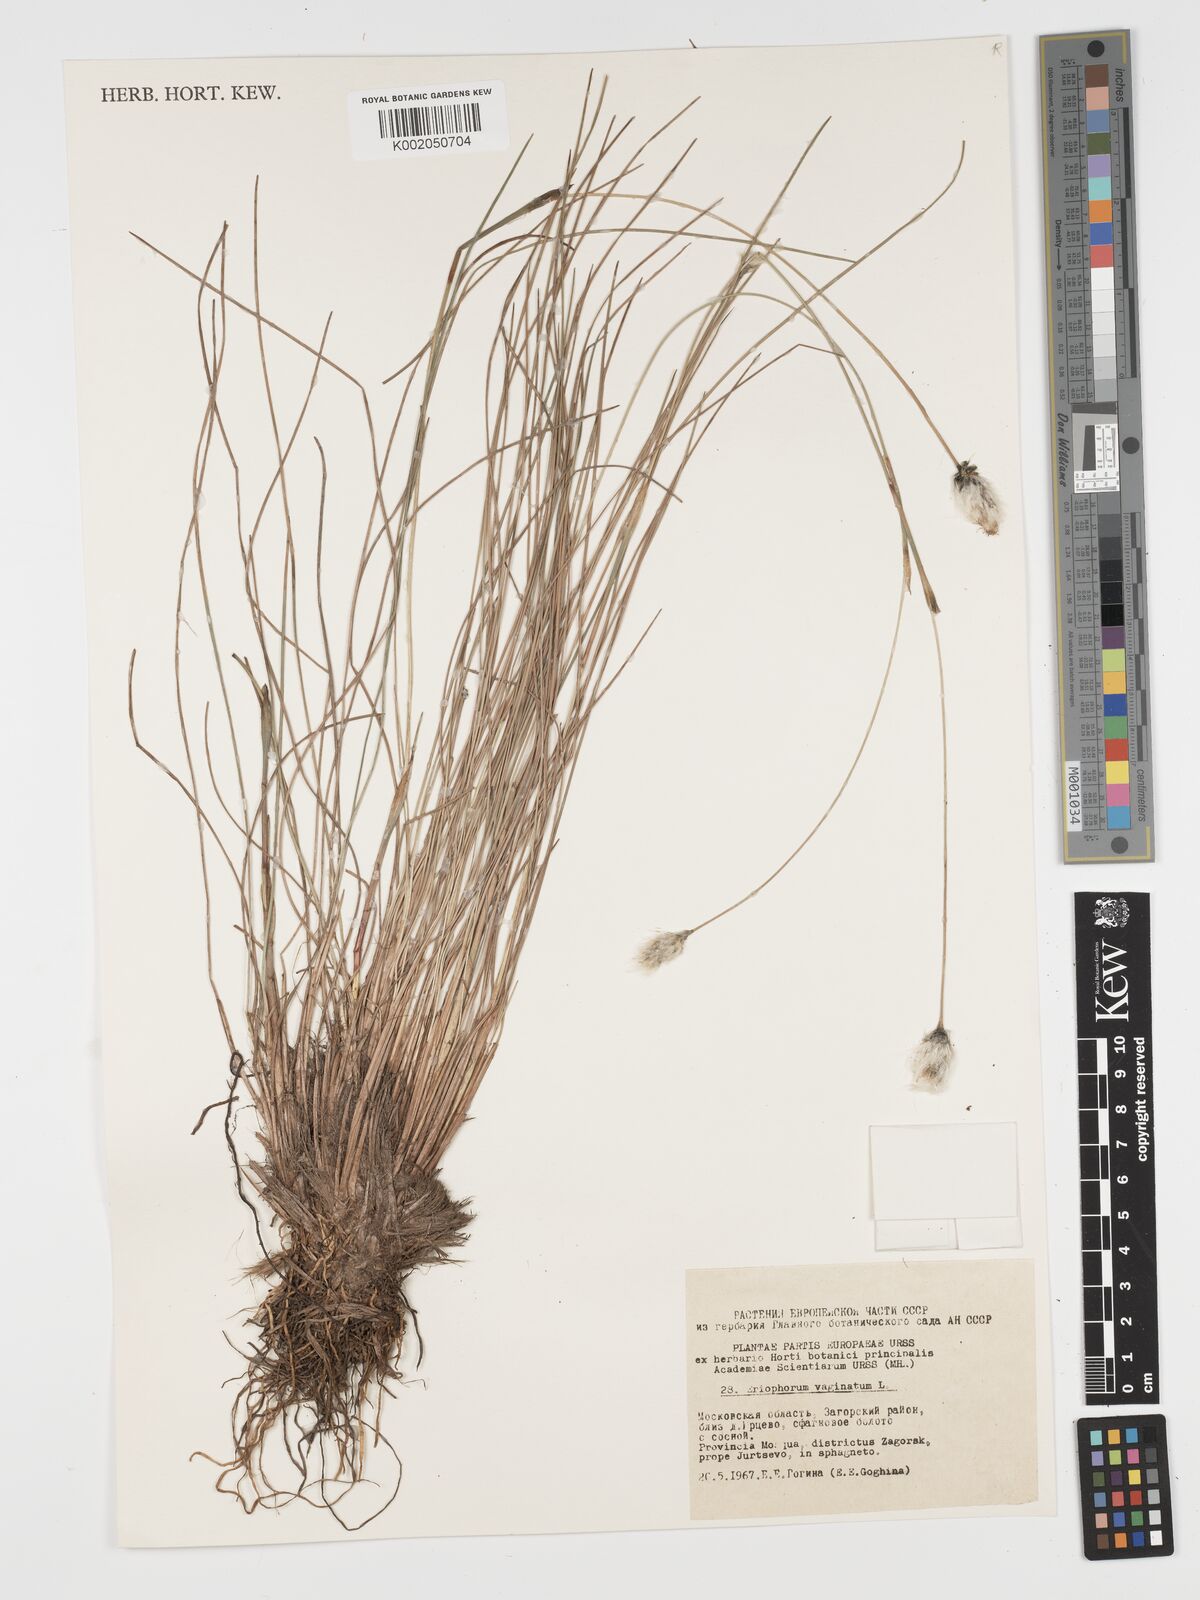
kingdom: Plantae
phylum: Tracheophyta
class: Liliopsida
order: Poales
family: Cyperaceae
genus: Eriophorum
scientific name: Eriophorum vaginatum
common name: Hare's-tail cottongrass
